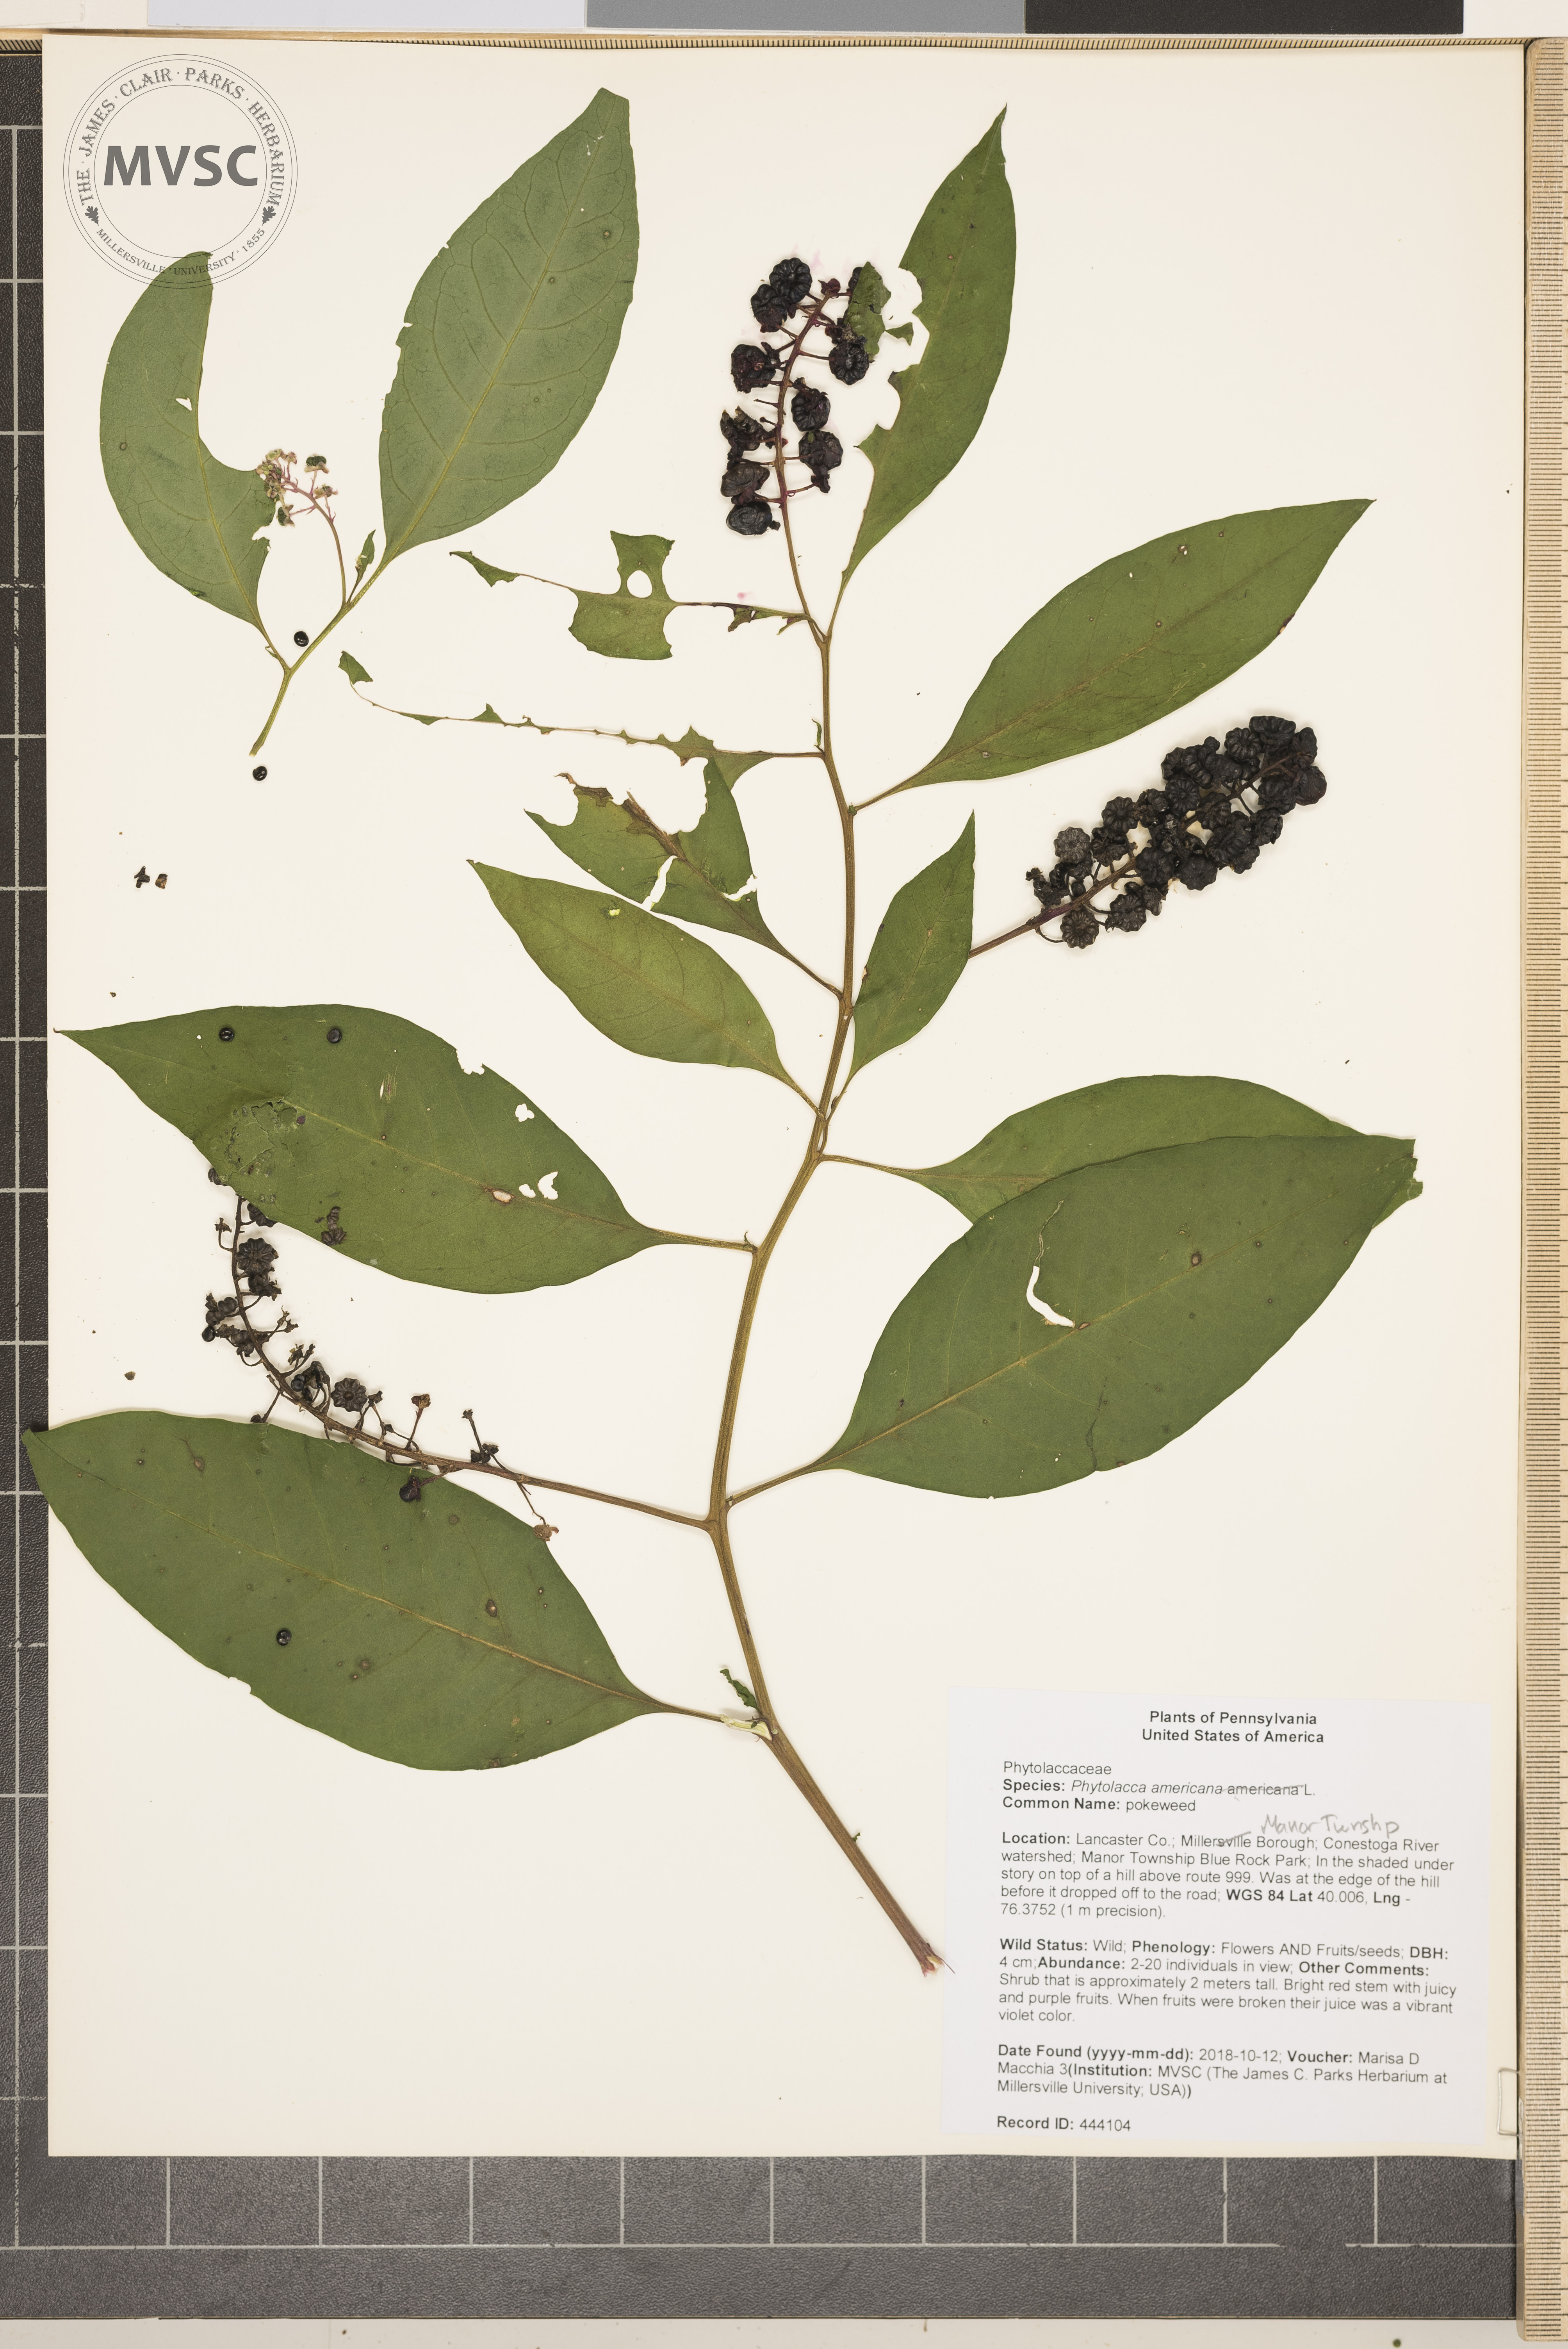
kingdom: Plantae
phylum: Tracheophyta
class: Magnoliopsida
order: Caryophyllales
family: Phytolaccaceae
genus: Phytolacca
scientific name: Phytolacca americana
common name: pokeweed
